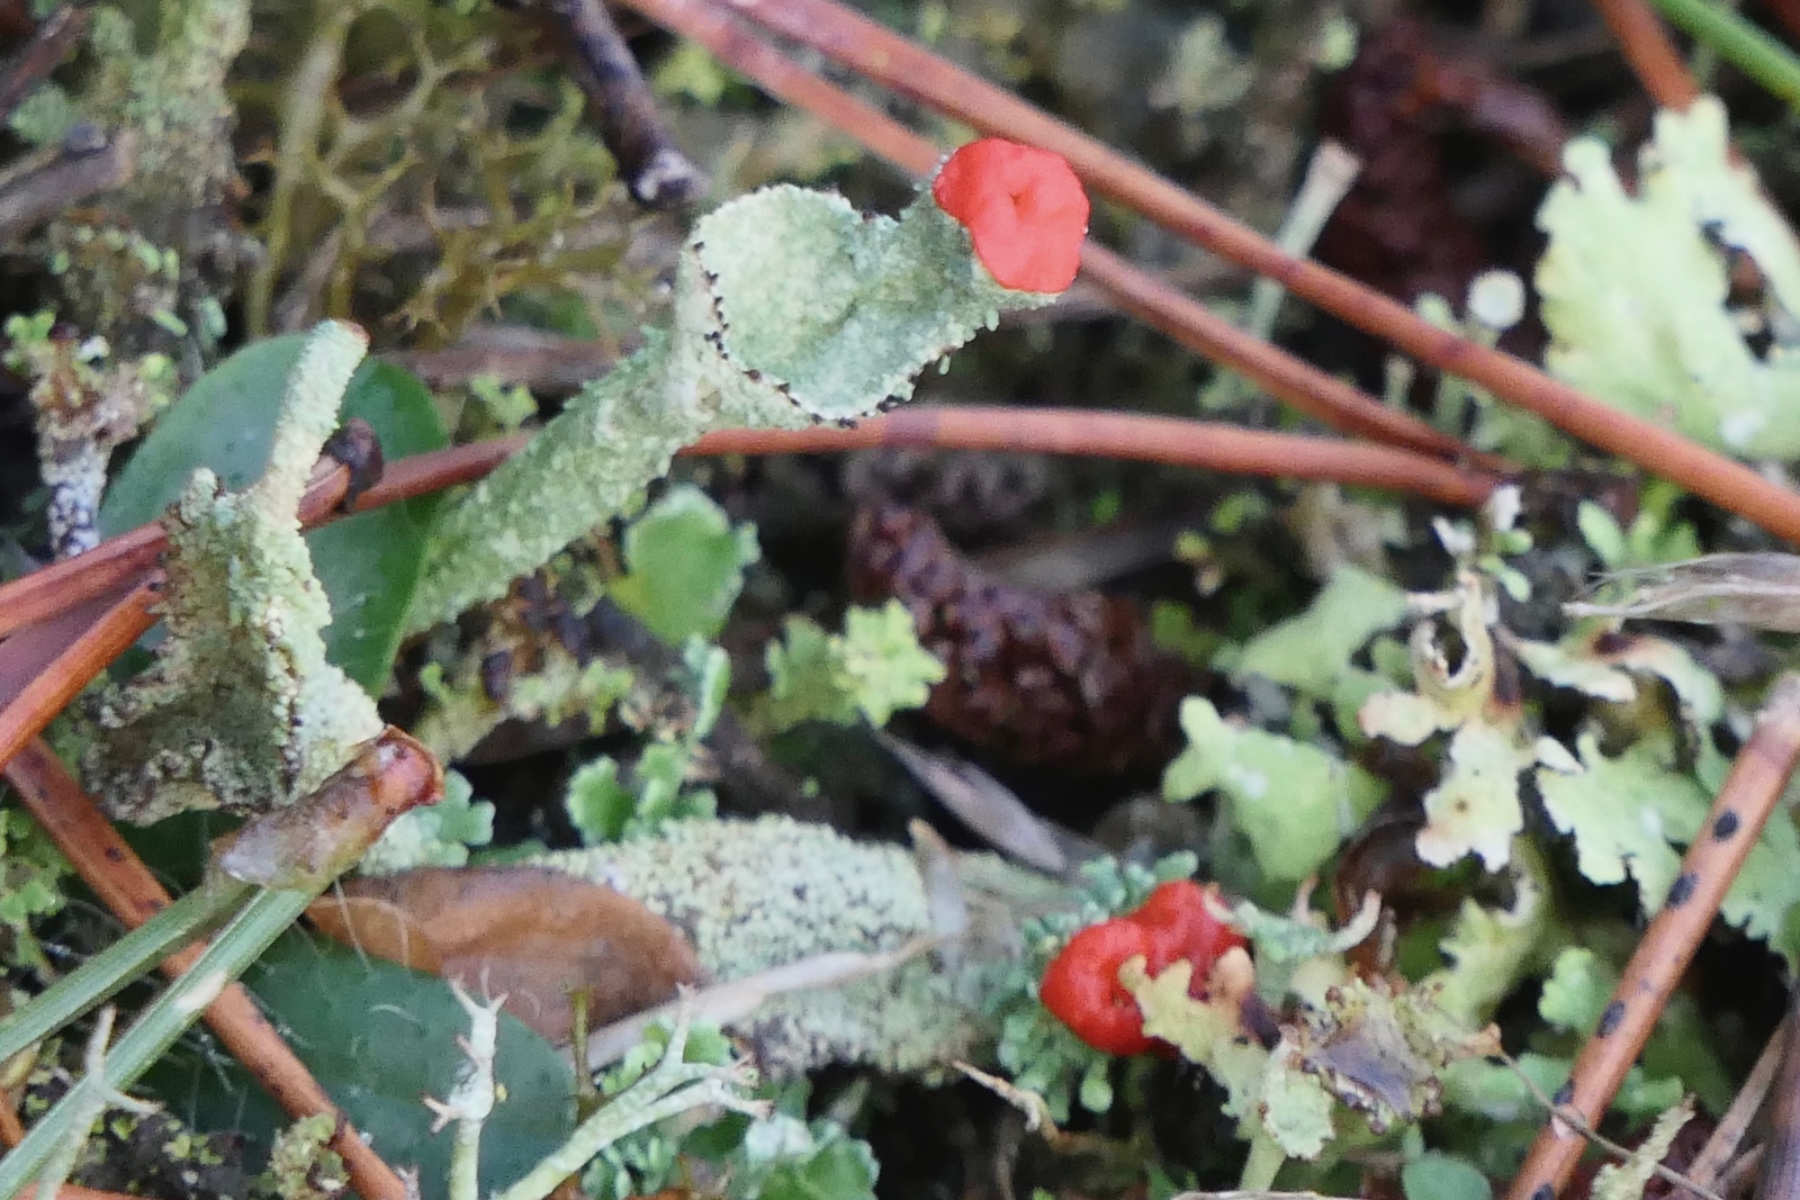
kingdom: Fungi
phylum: Ascomycota
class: Lecanoromycetes
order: Lecanorales
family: Cladoniaceae
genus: Cladonia
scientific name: Cladonia diversa
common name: rød bægerlav
